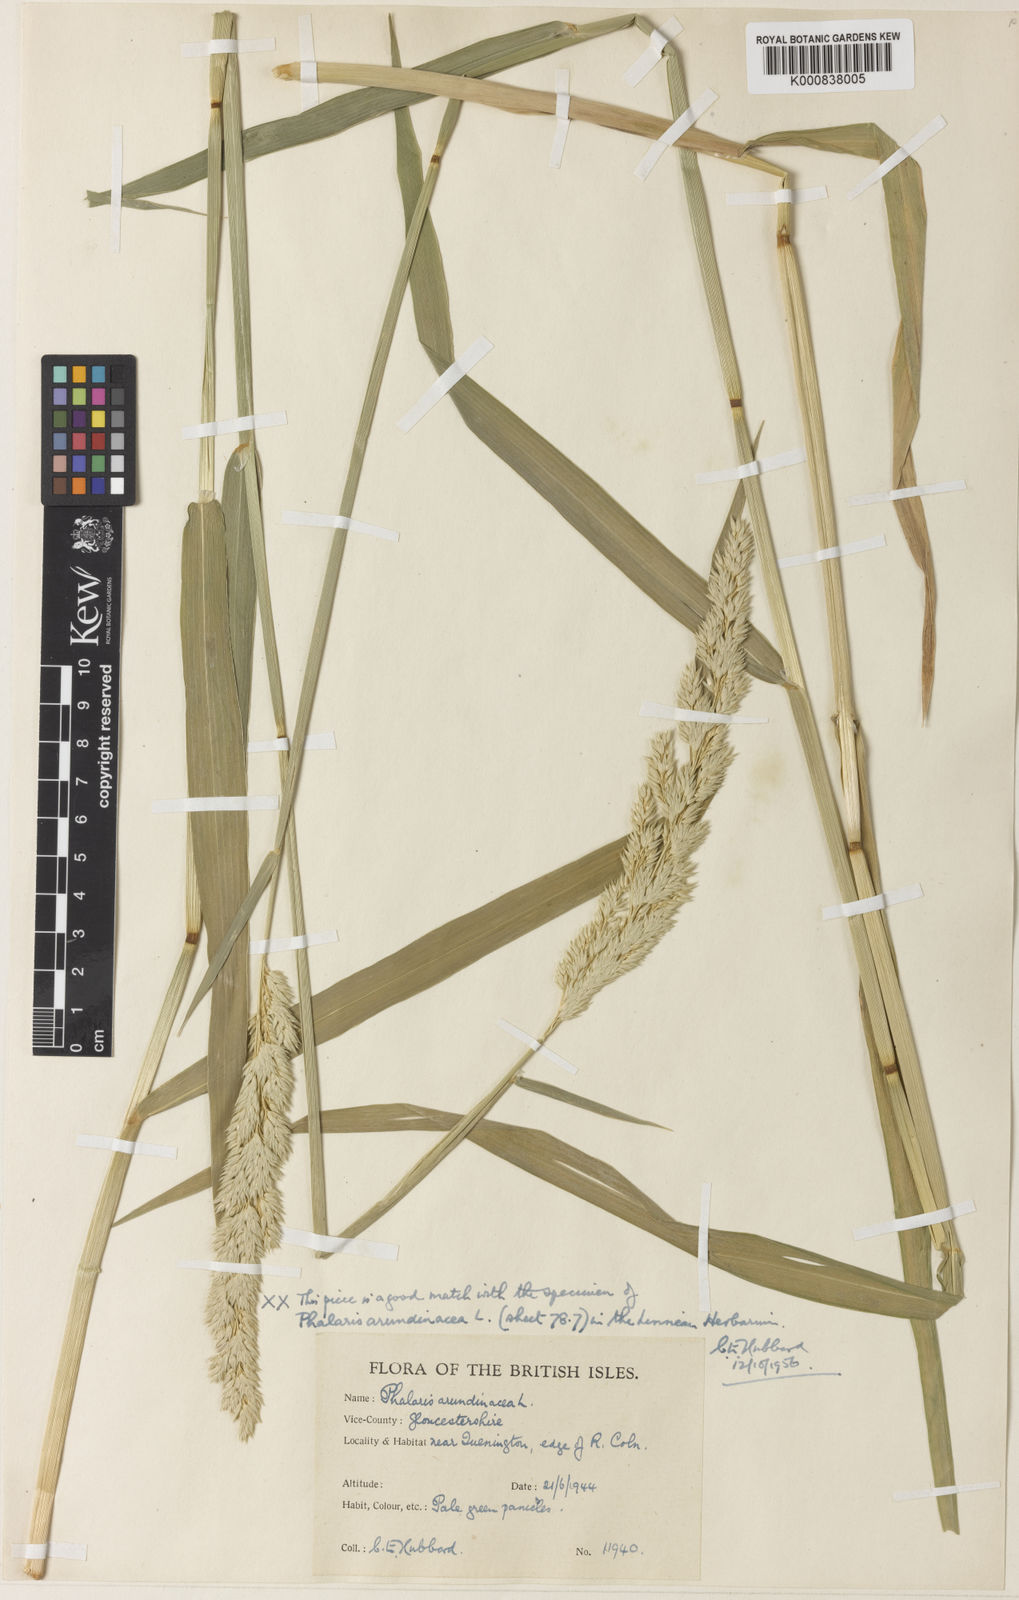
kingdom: Plantae
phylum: Tracheophyta
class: Liliopsida
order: Poales
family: Poaceae
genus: Phalaris
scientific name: Phalaris arundinacea
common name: Reed canary-grass
